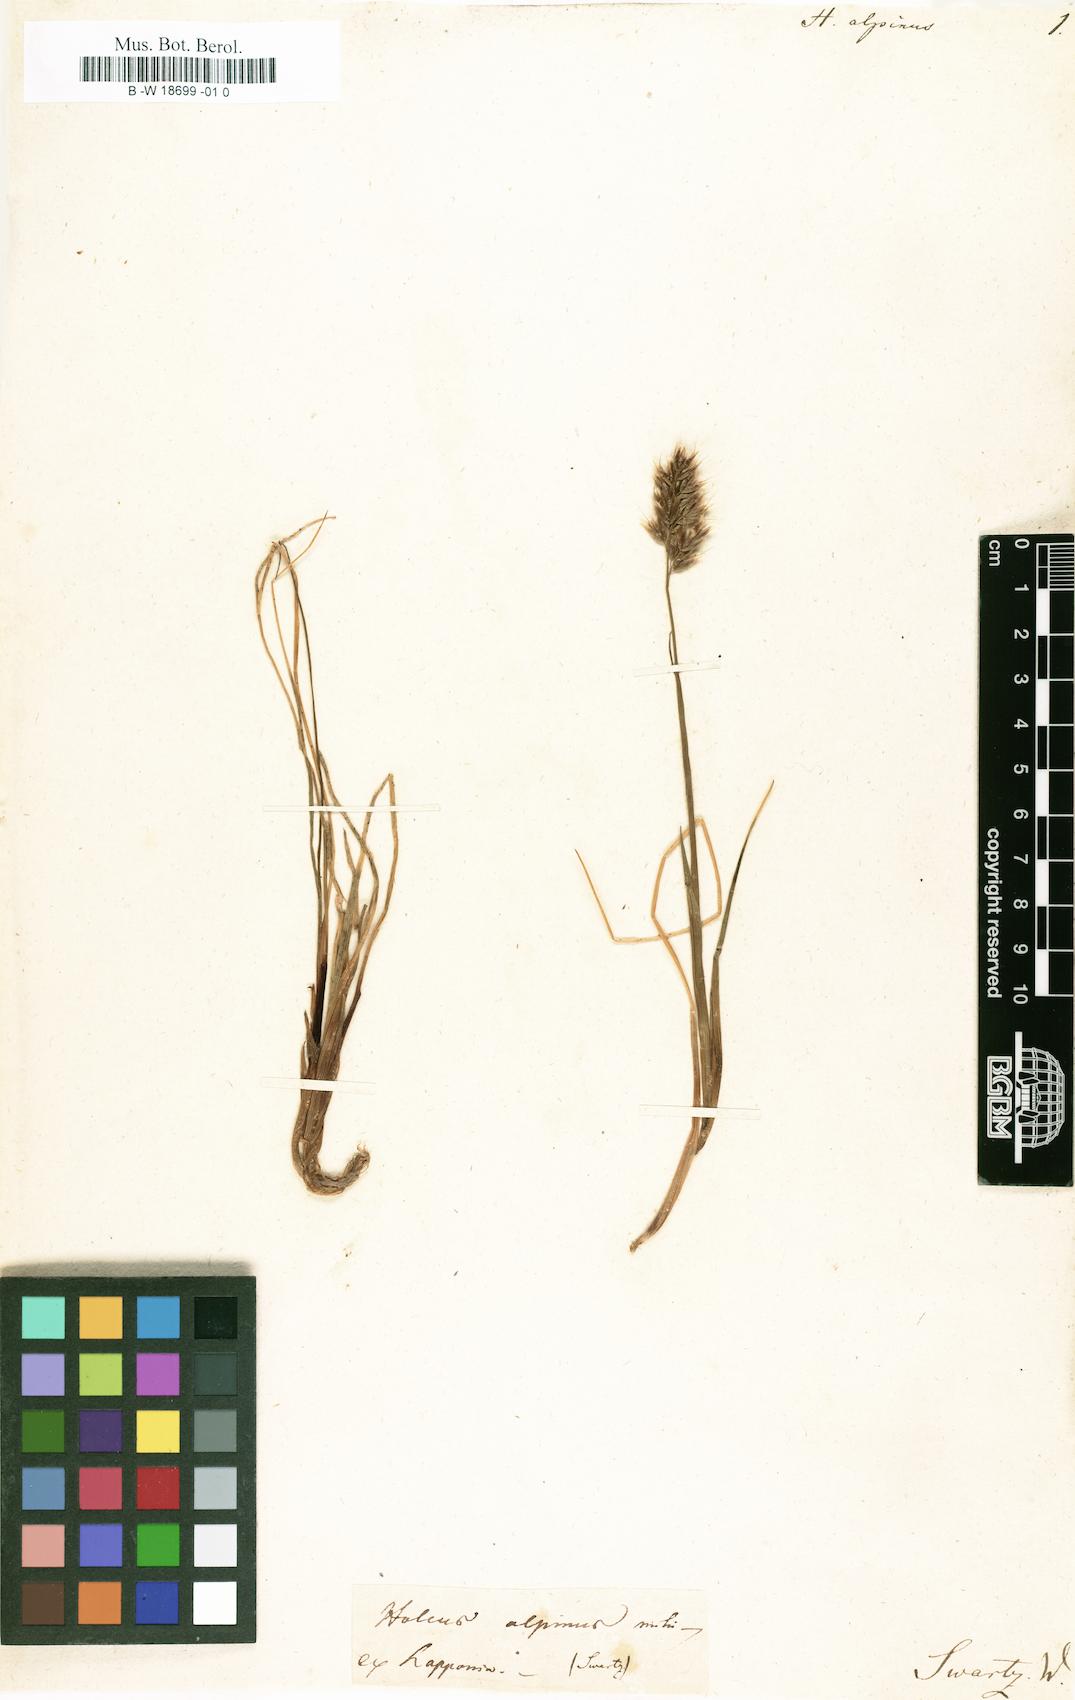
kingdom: Plantae
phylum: Tracheophyta
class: Liliopsida
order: Poales
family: Poaceae
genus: Anthoxanthum
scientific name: Anthoxanthum monticola
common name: Alpine sweetgrass
